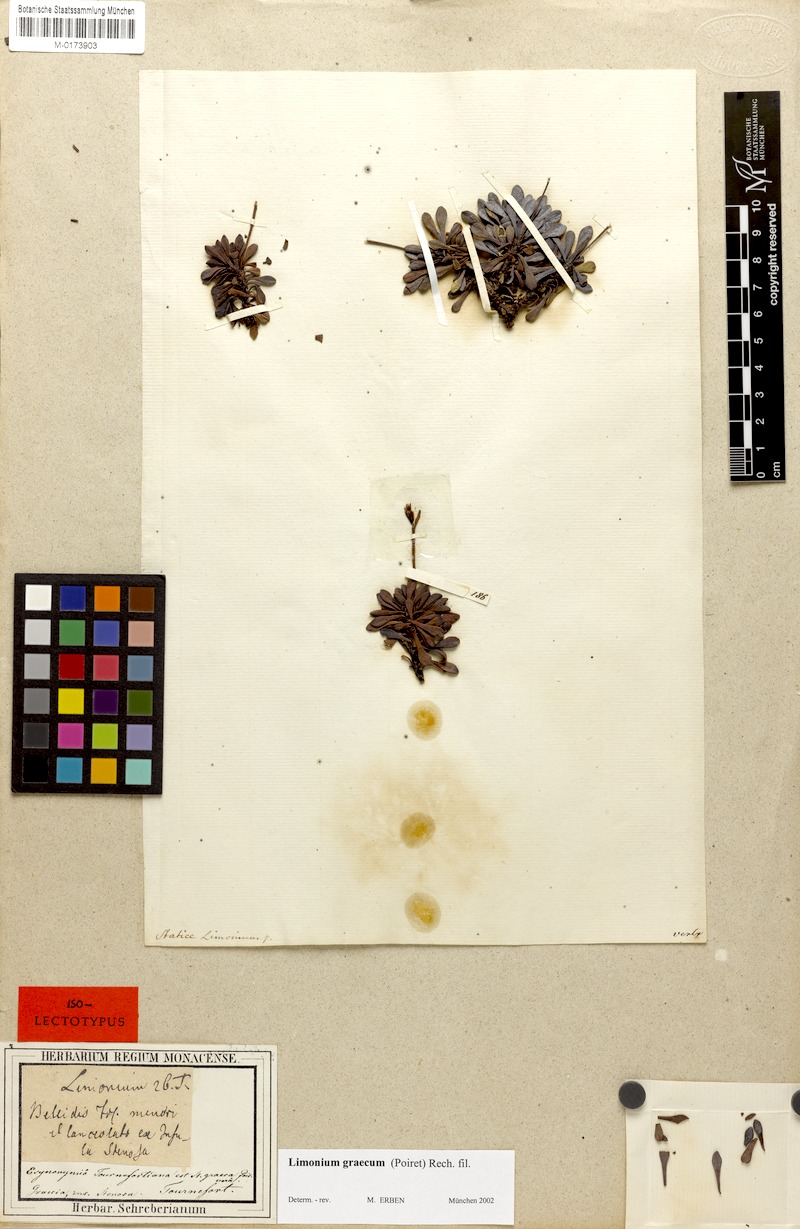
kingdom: Plantae
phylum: Tracheophyta
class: Magnoliopsida
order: Caryophyllales
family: Plumbaginaceae
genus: Limonium
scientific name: Limonium graecum
